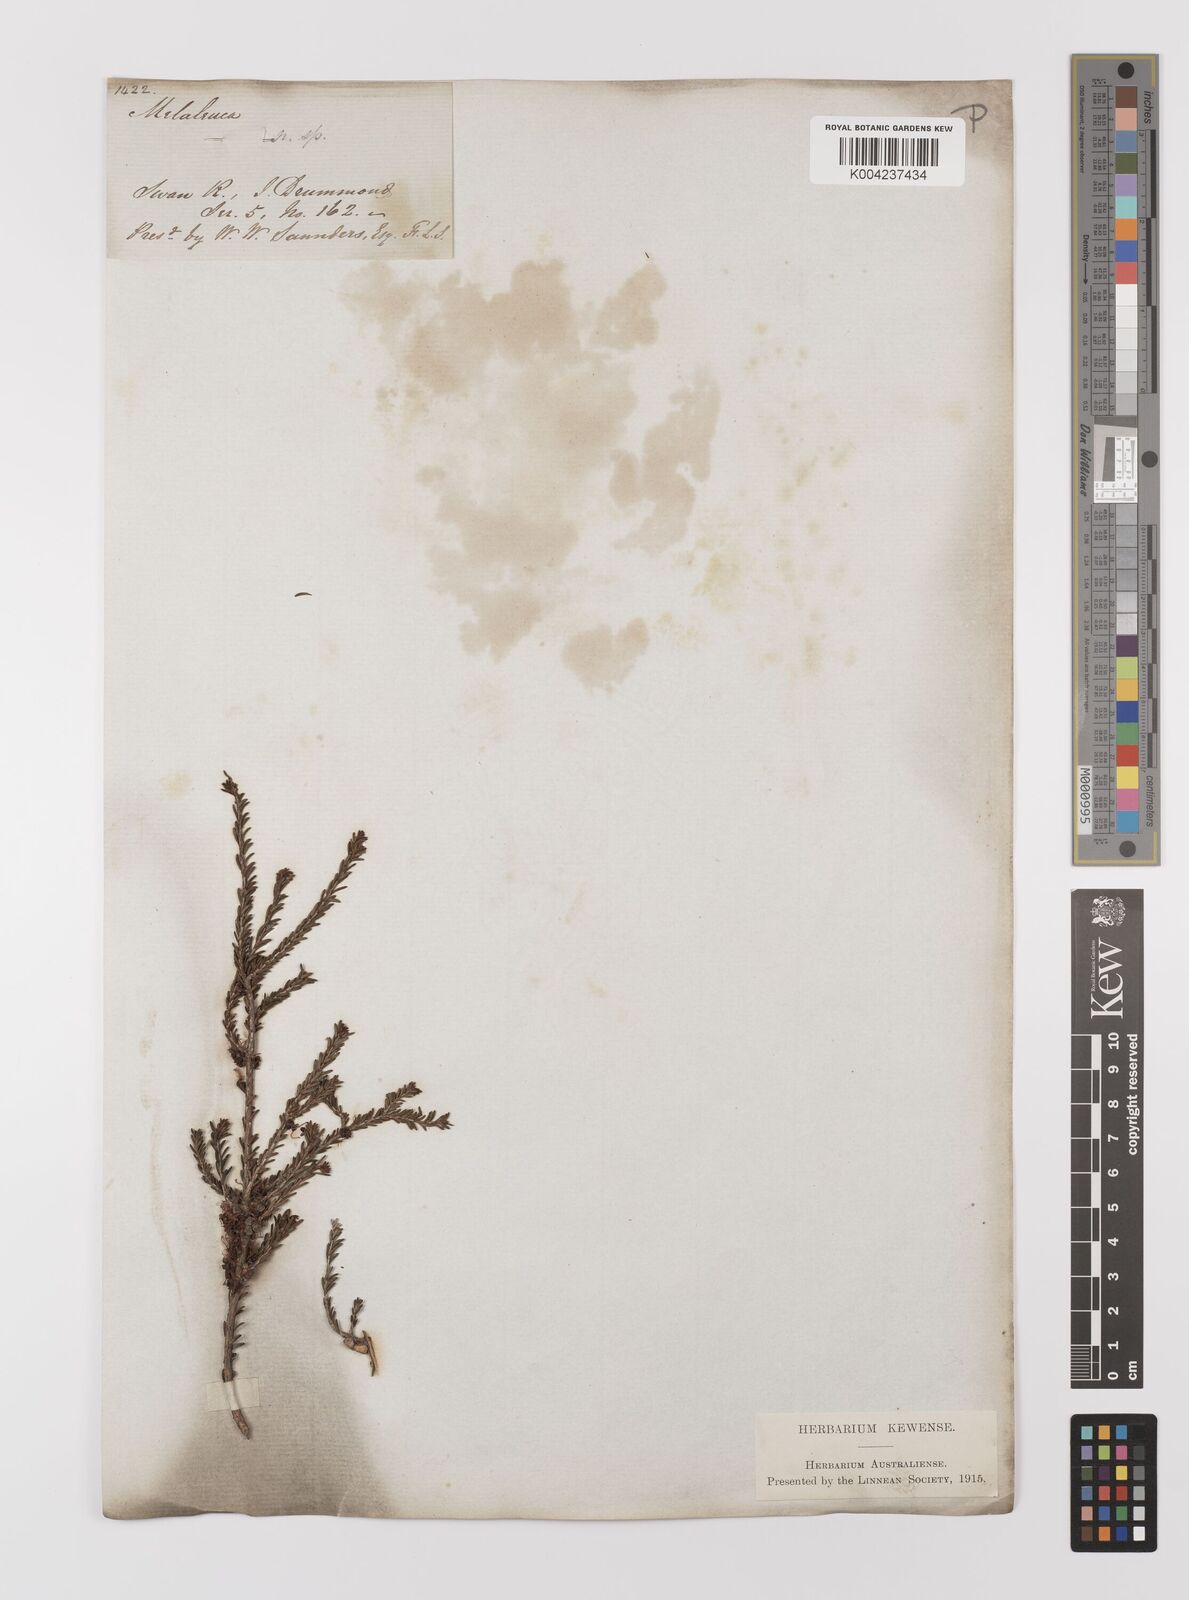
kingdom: Plantae
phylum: Tracheophyta
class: Magnoliopsida
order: Myrtales
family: Myrtaceae
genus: Melaleuca
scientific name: Melaleuca
